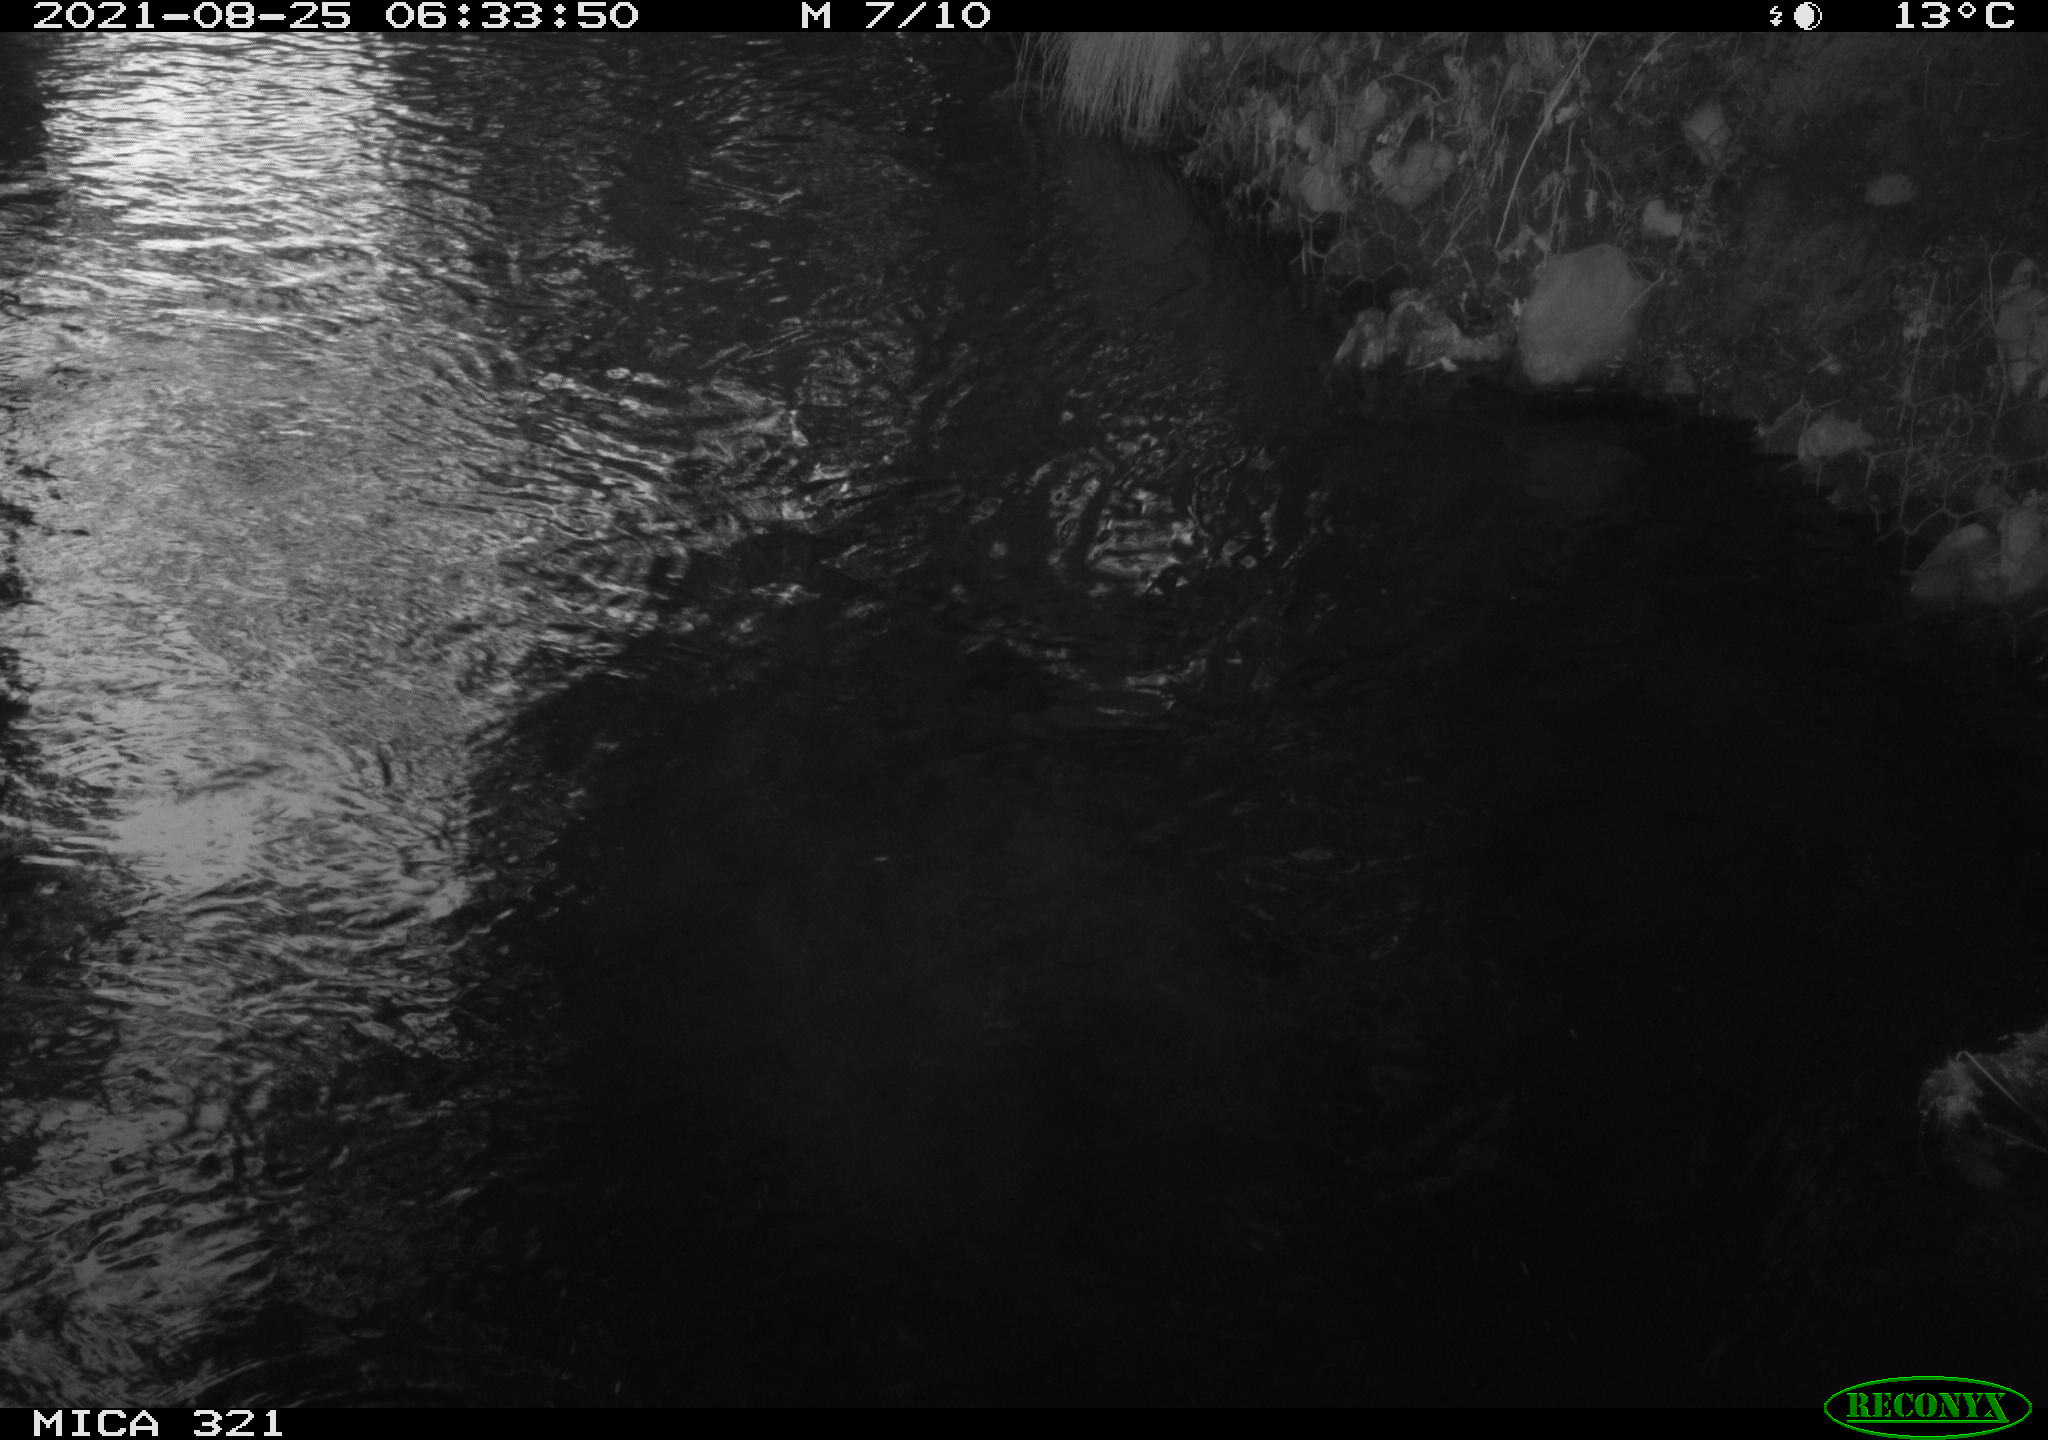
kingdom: Animalia
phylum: Chordata
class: Aves
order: Anseriformes
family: Anatidae
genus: Anas
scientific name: Anas platyrhynchos
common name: Mallard
